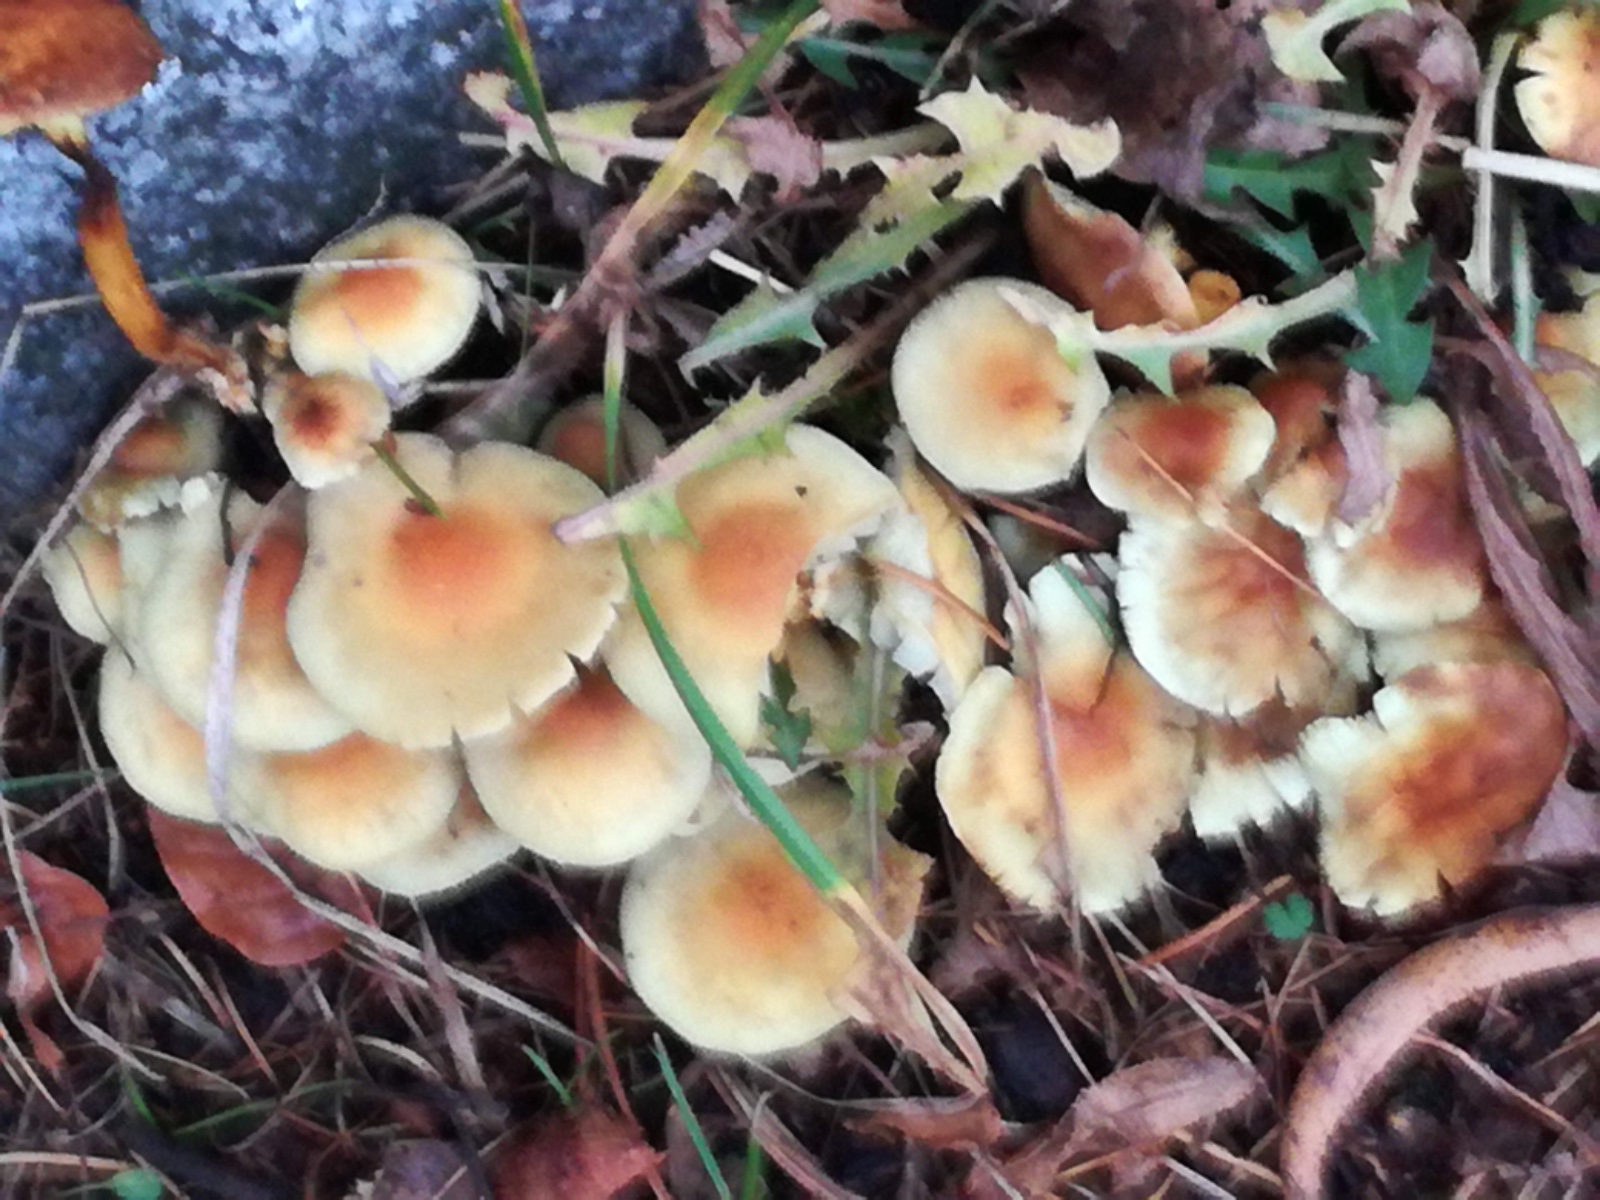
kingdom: Fungi
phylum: Basidiomycota
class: Agaricomycetes
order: Agaricales
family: Strophariaceae
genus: Hypholoma
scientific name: Hypholoma fasciculare
